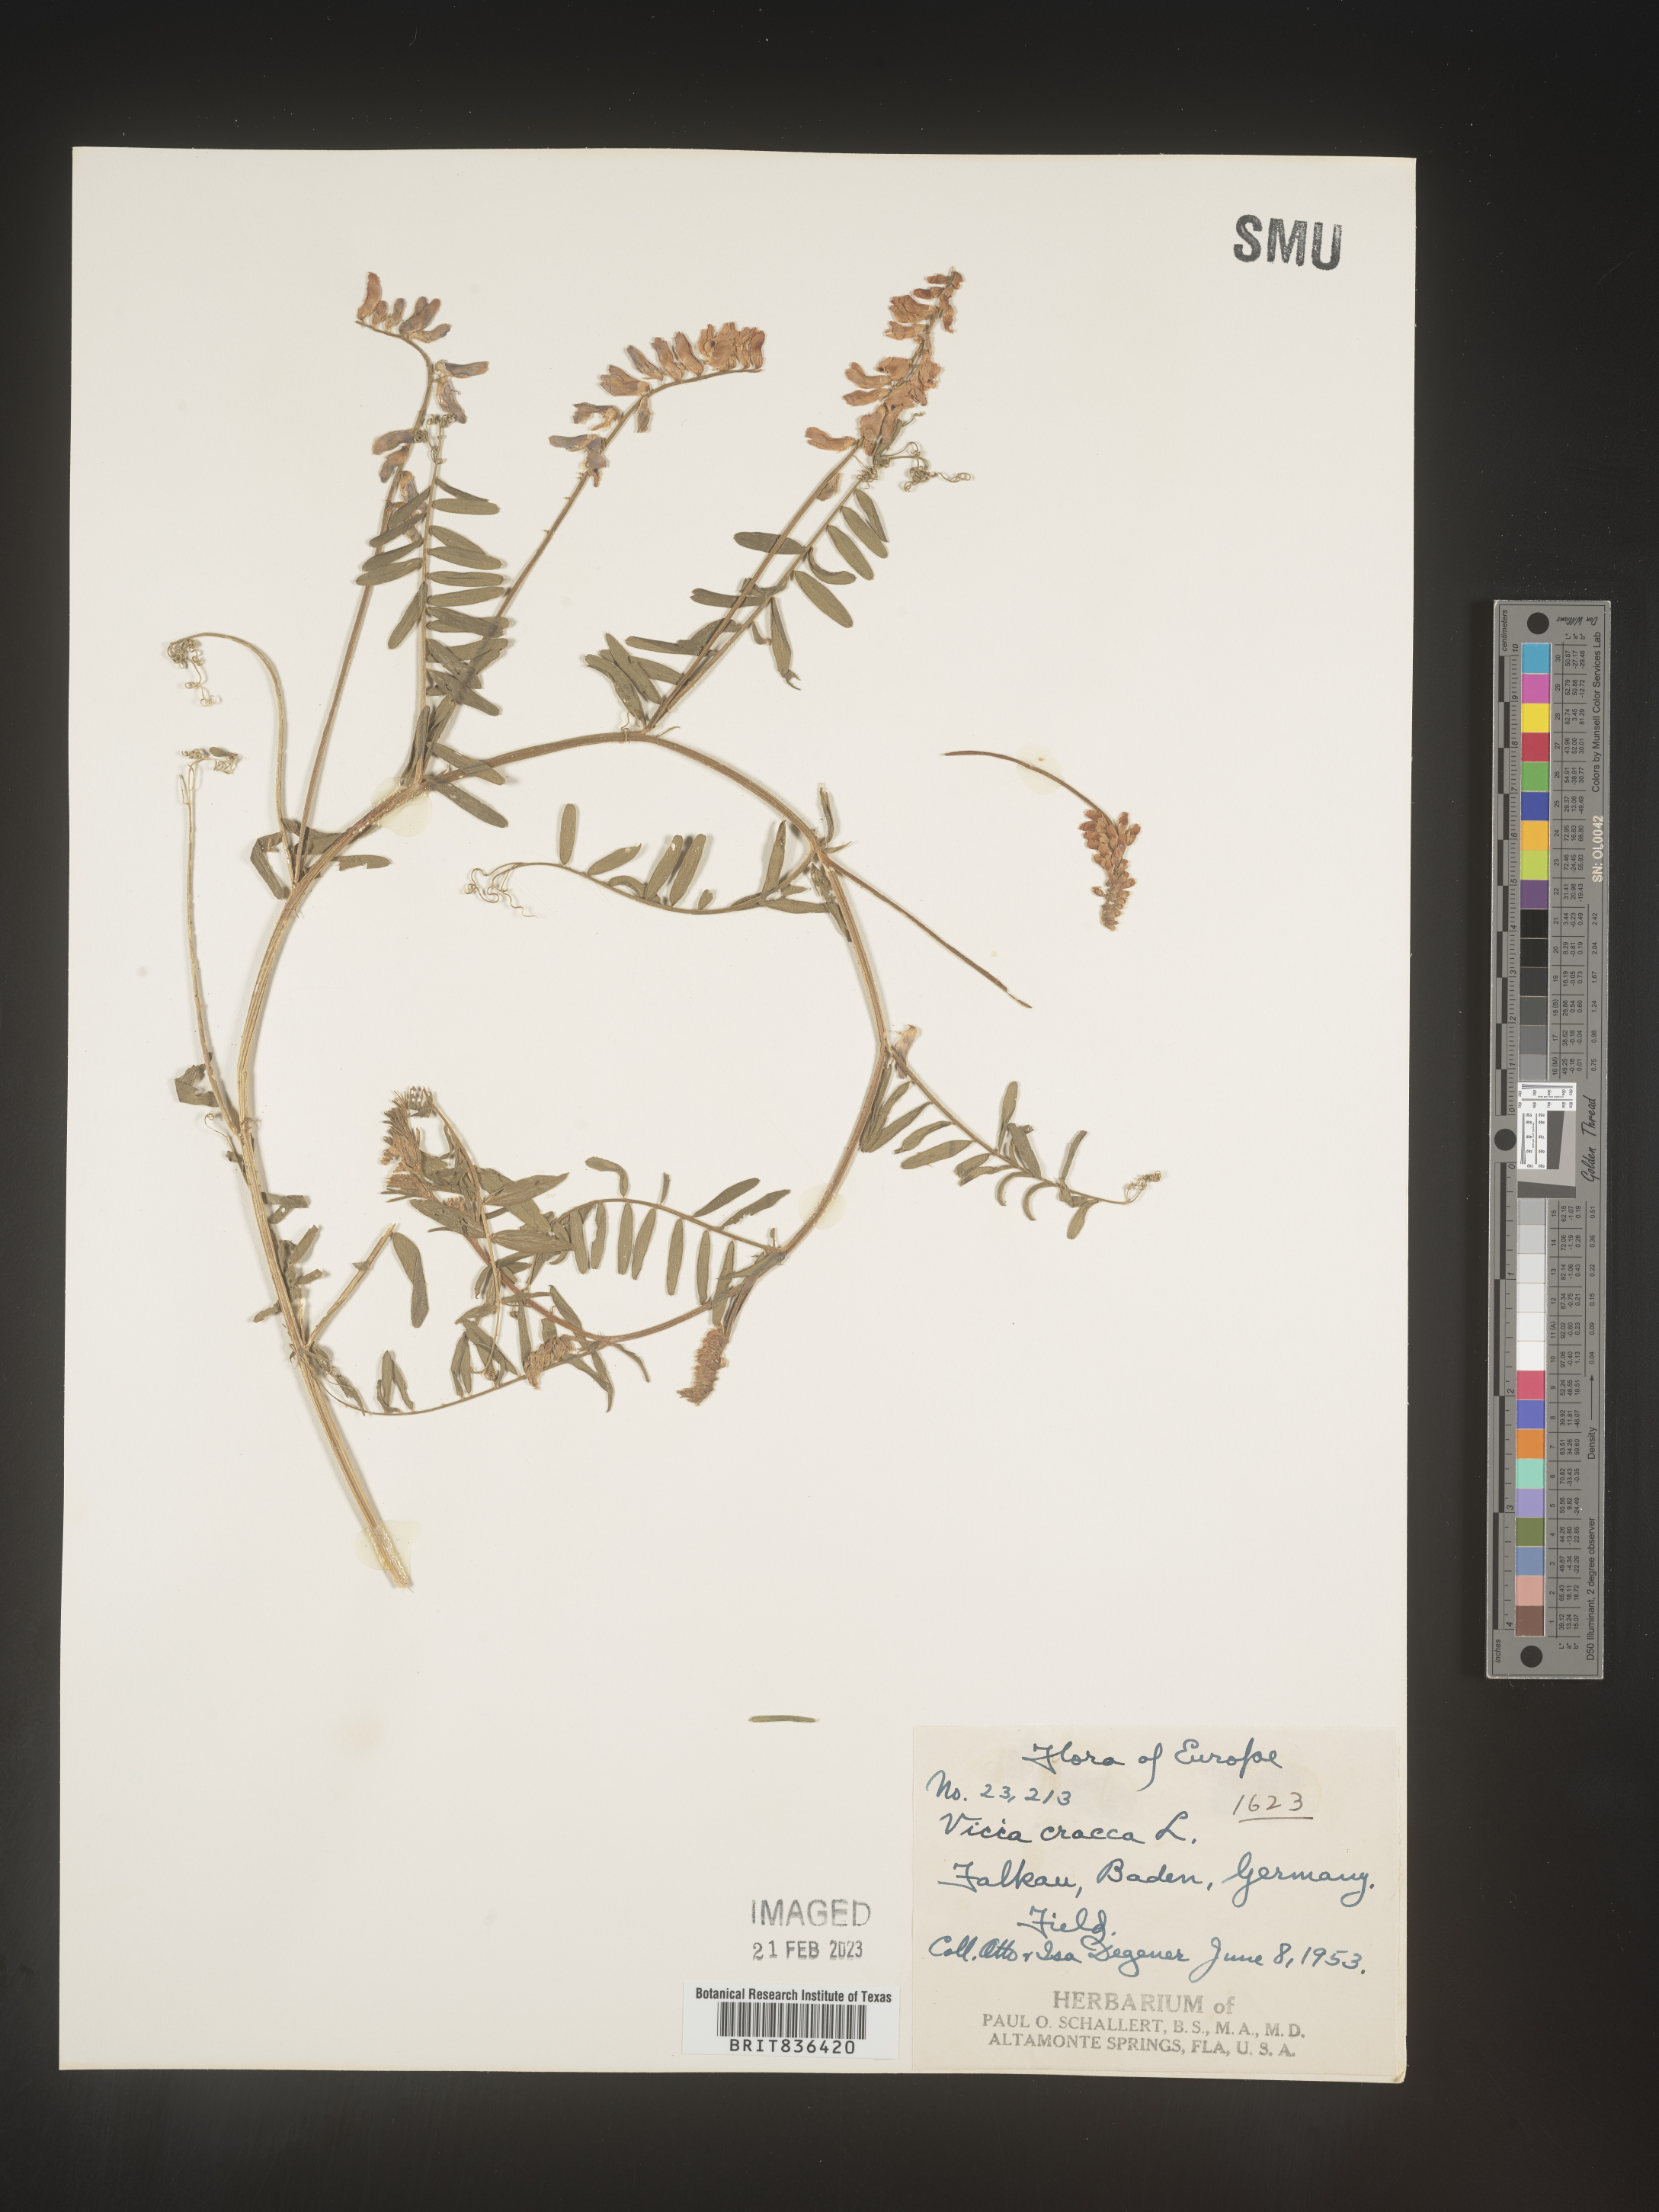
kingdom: Plantae
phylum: Tracheophyta
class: Magnoliopsida
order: Fabales
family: Fabaceae
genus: Vicia
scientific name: Vicia
